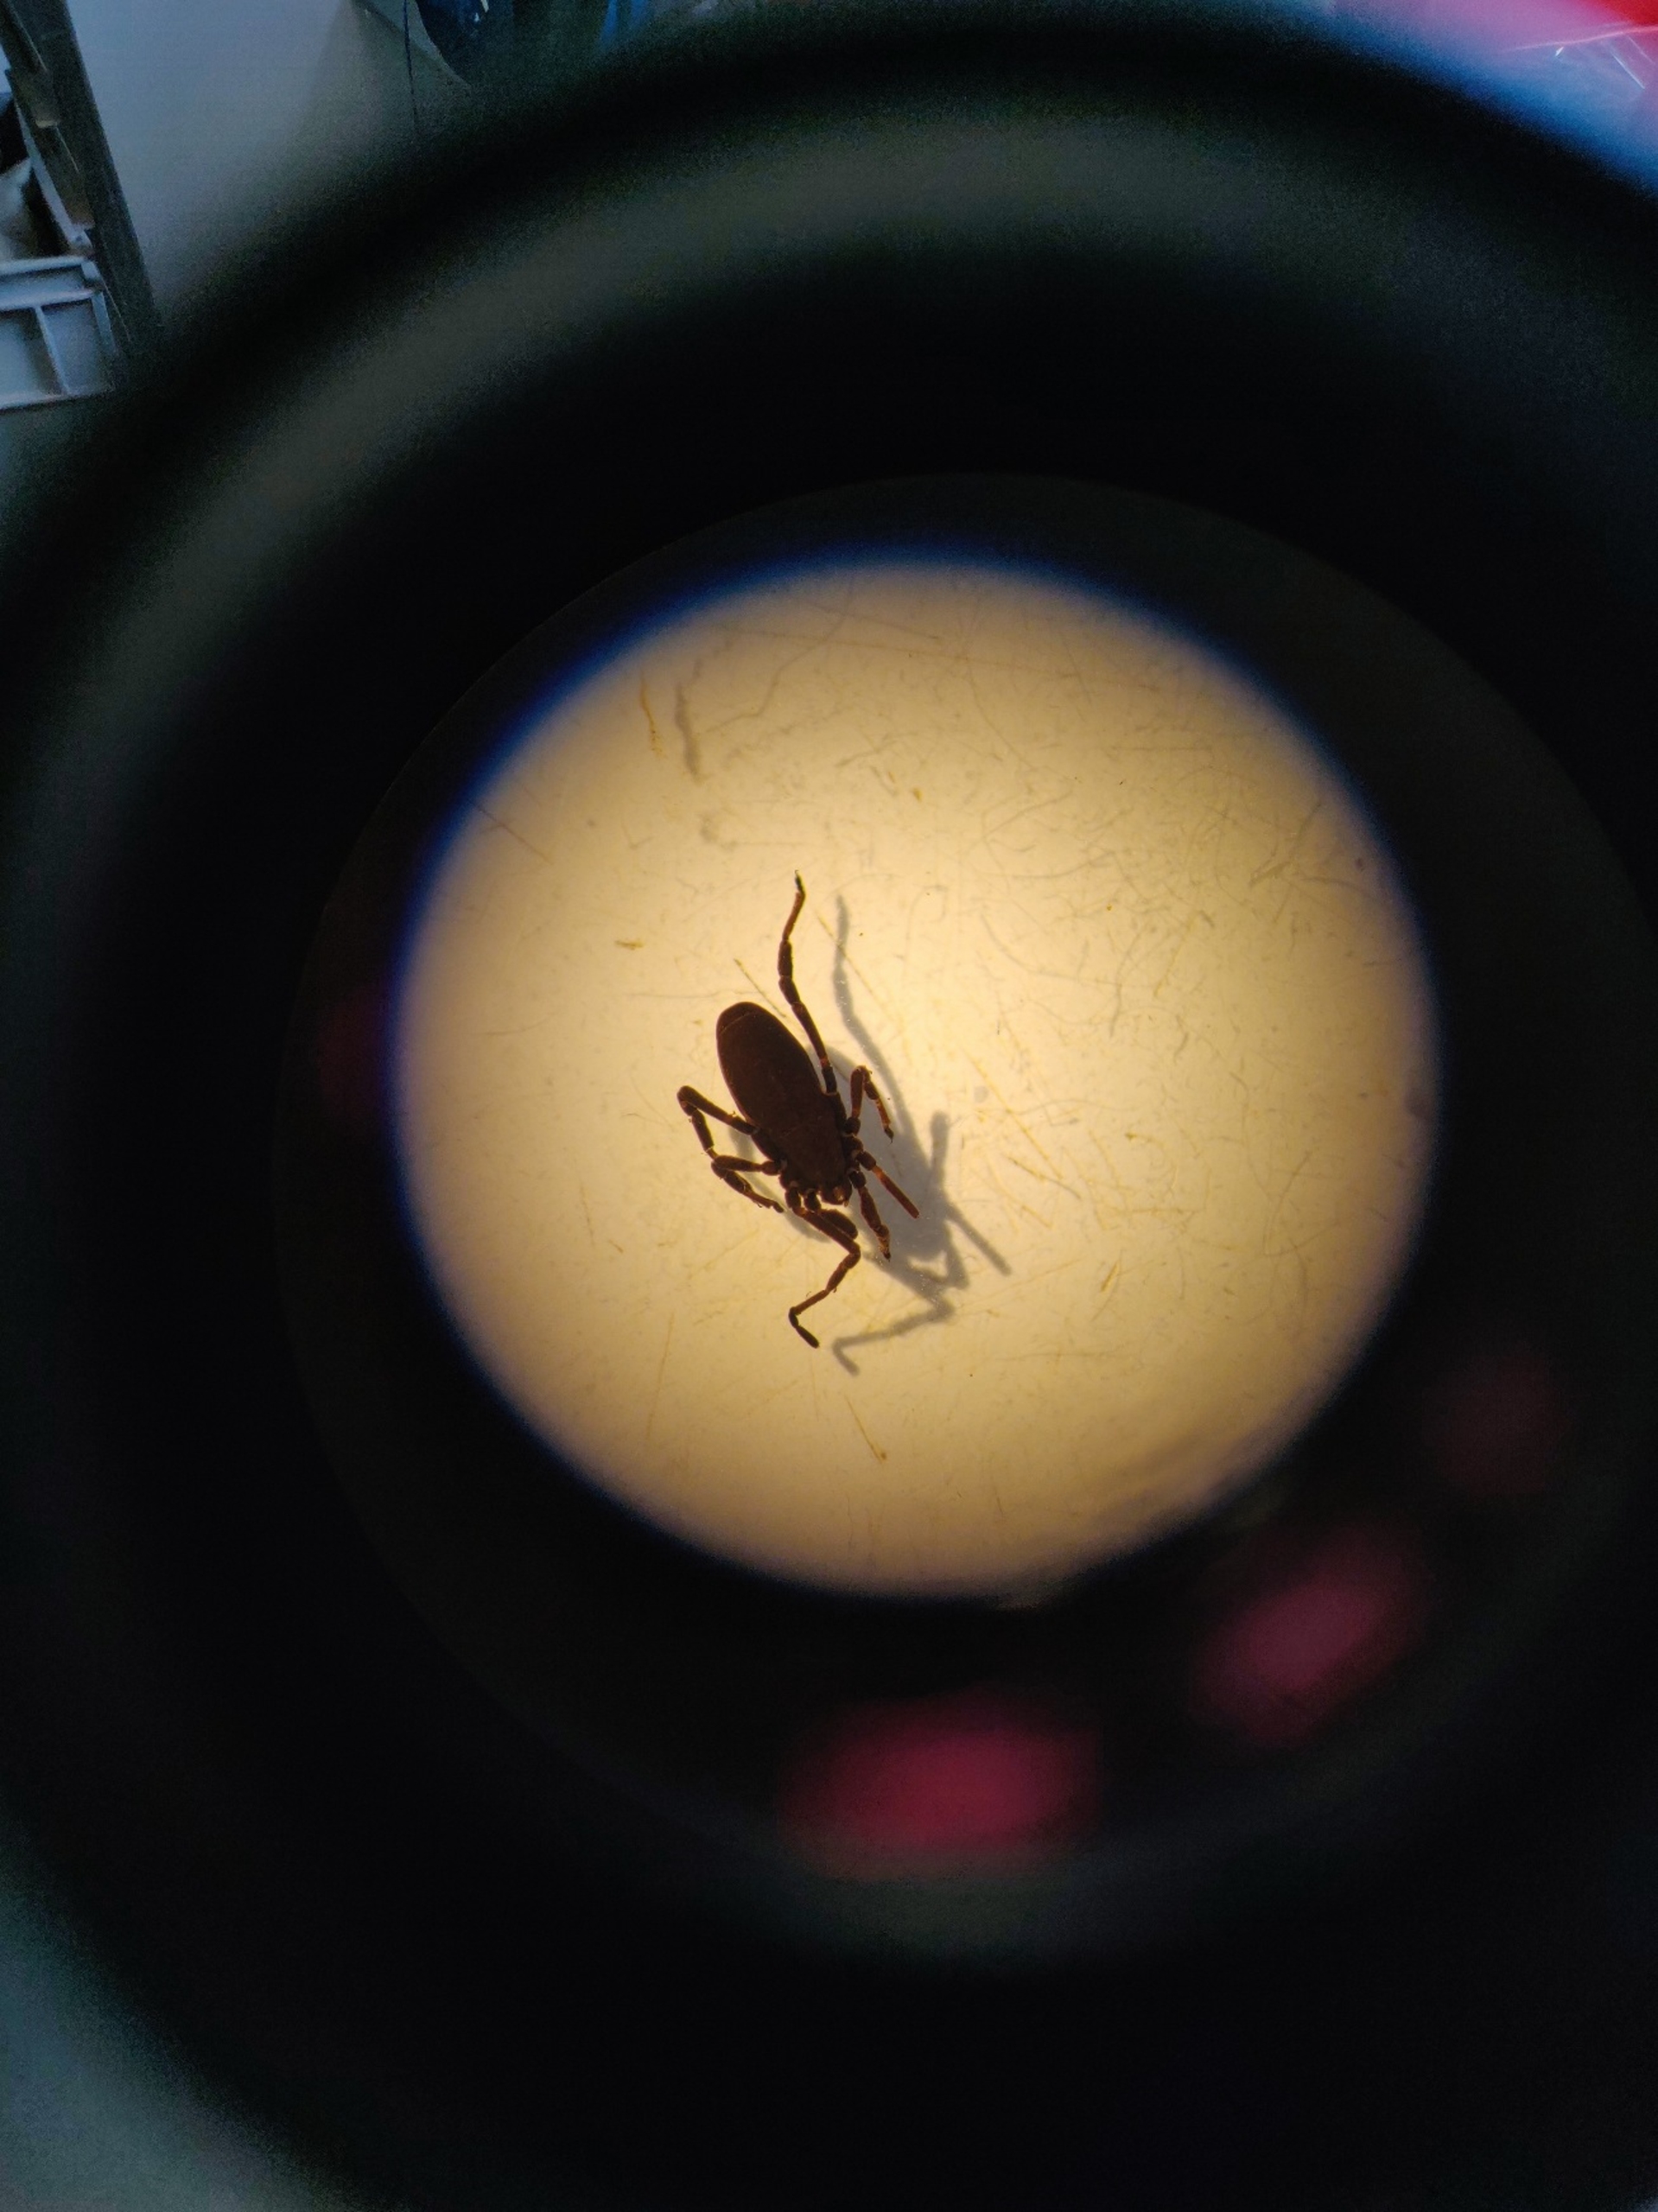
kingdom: Animalia
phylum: Arthropoda
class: Arachnida
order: Opiliones
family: Trogulidae
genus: Trogulus
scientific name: Trogulus tricarinatus
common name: Sneglemejer
